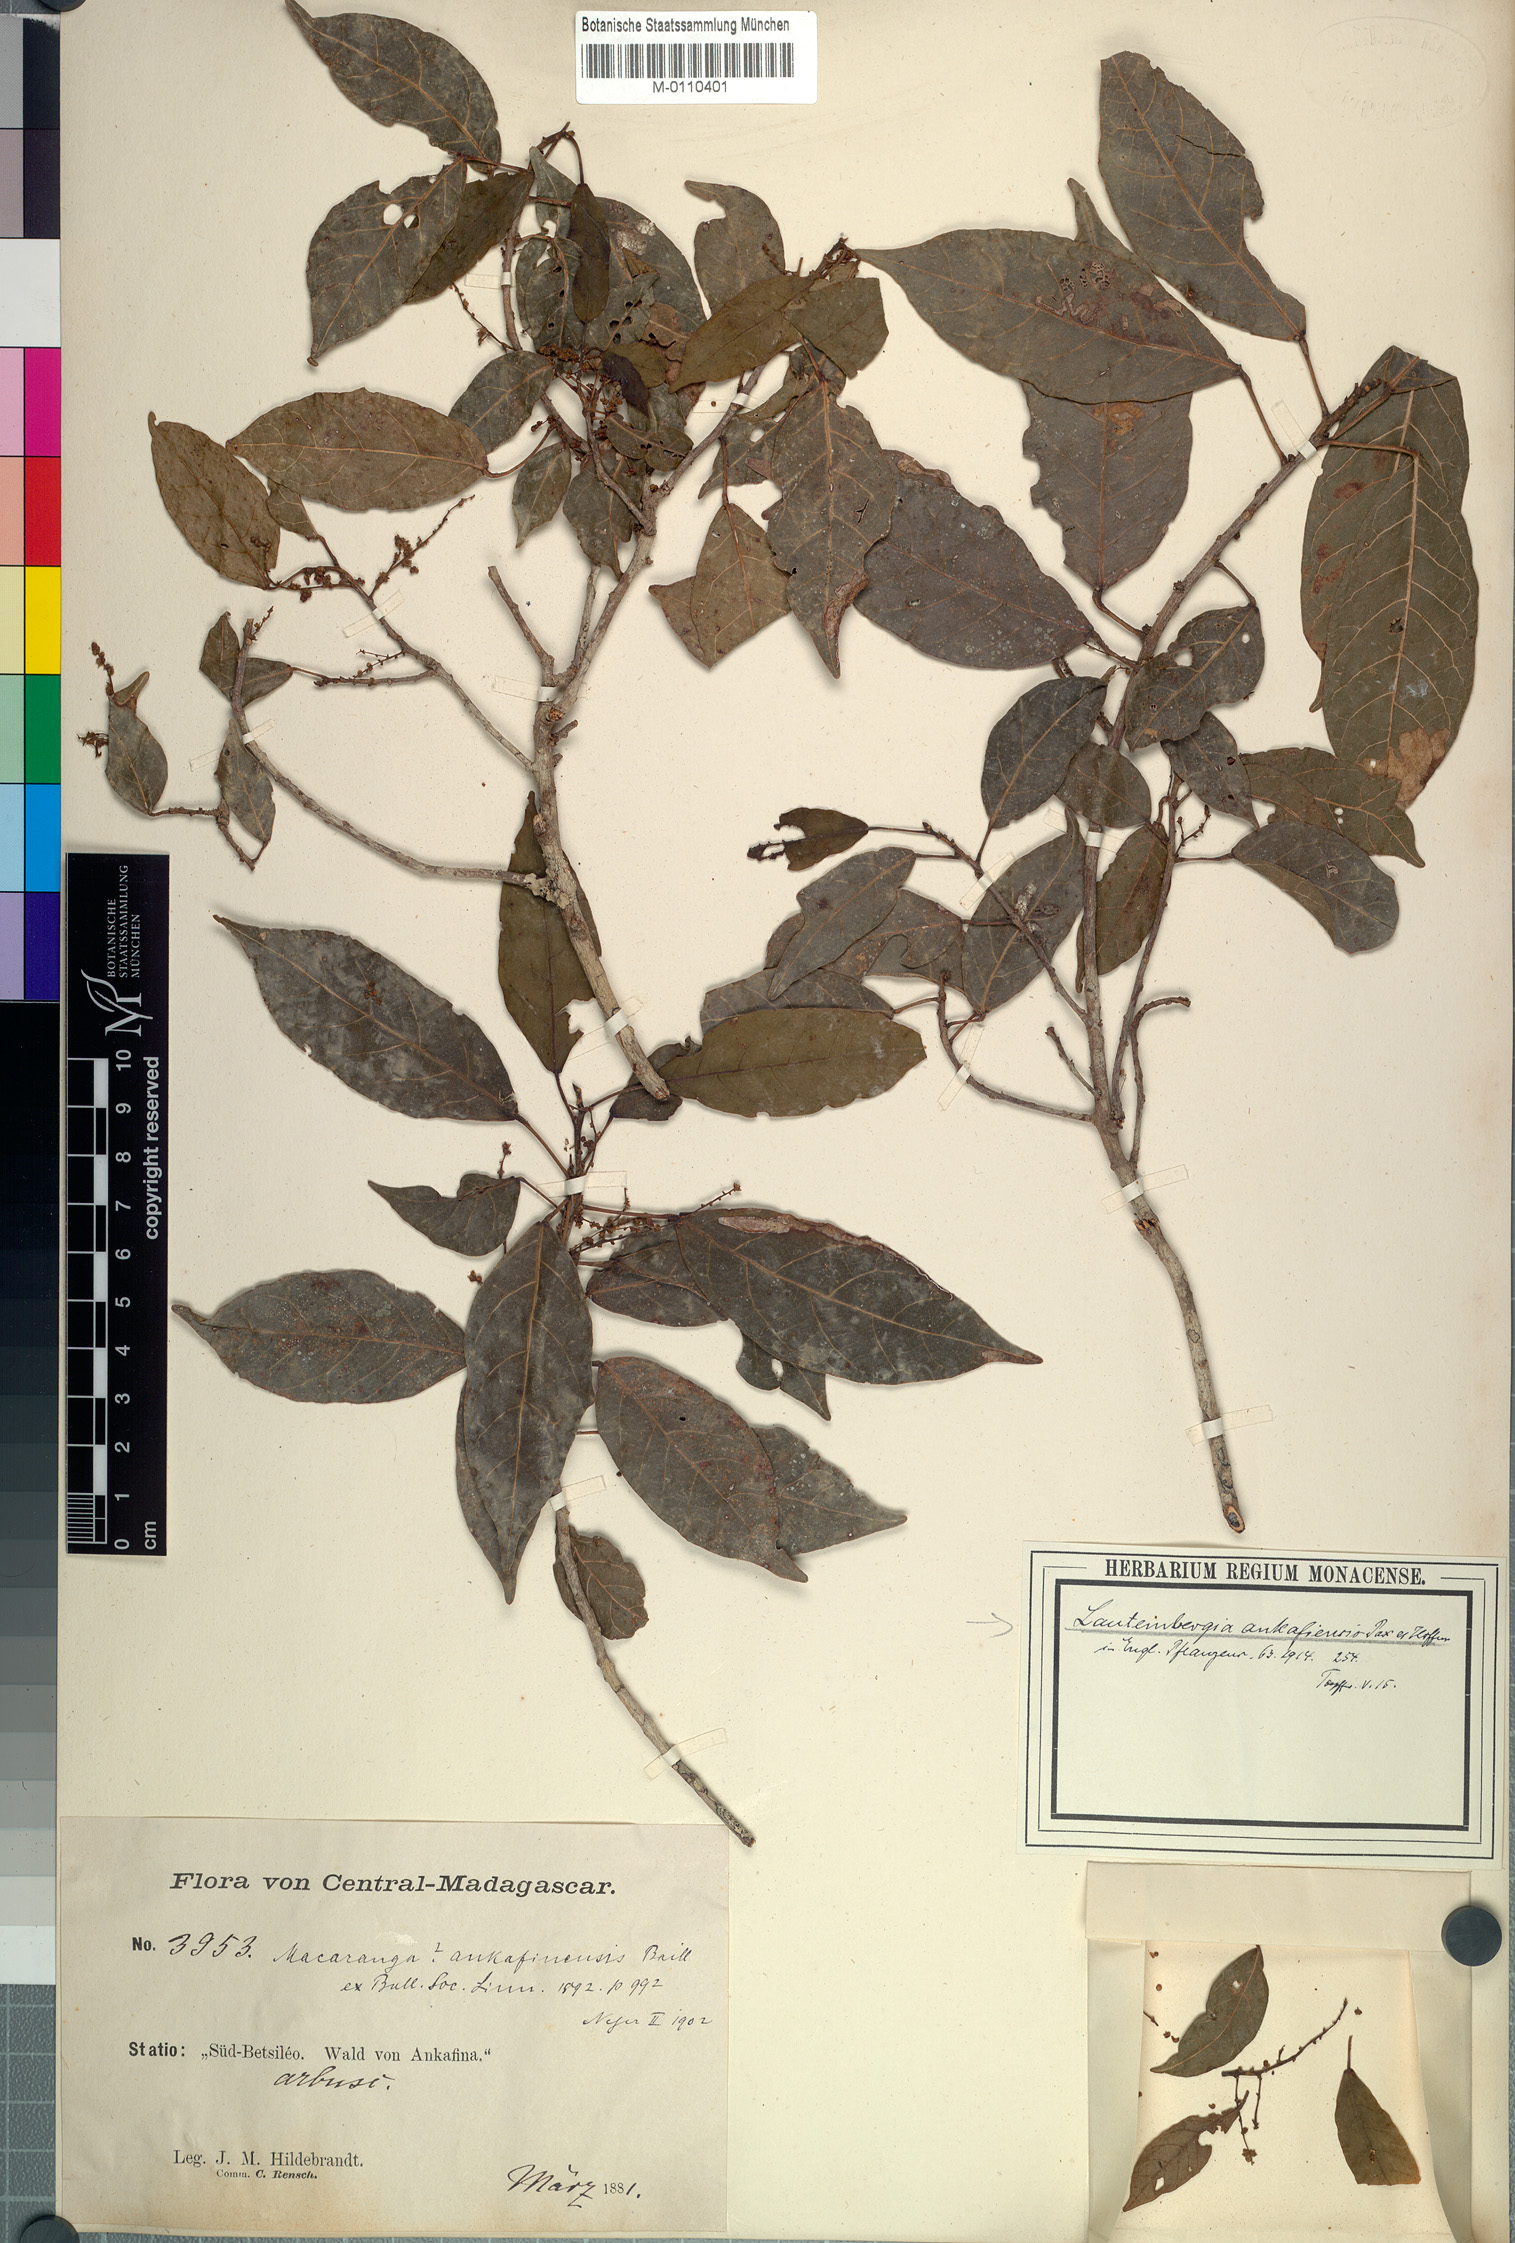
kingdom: Plantae
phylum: Tracheophyta
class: Magnoliopsida
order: Malpighiales
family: Euphorbiaceae
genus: Orfilea
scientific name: Orfilea ankafinensis
